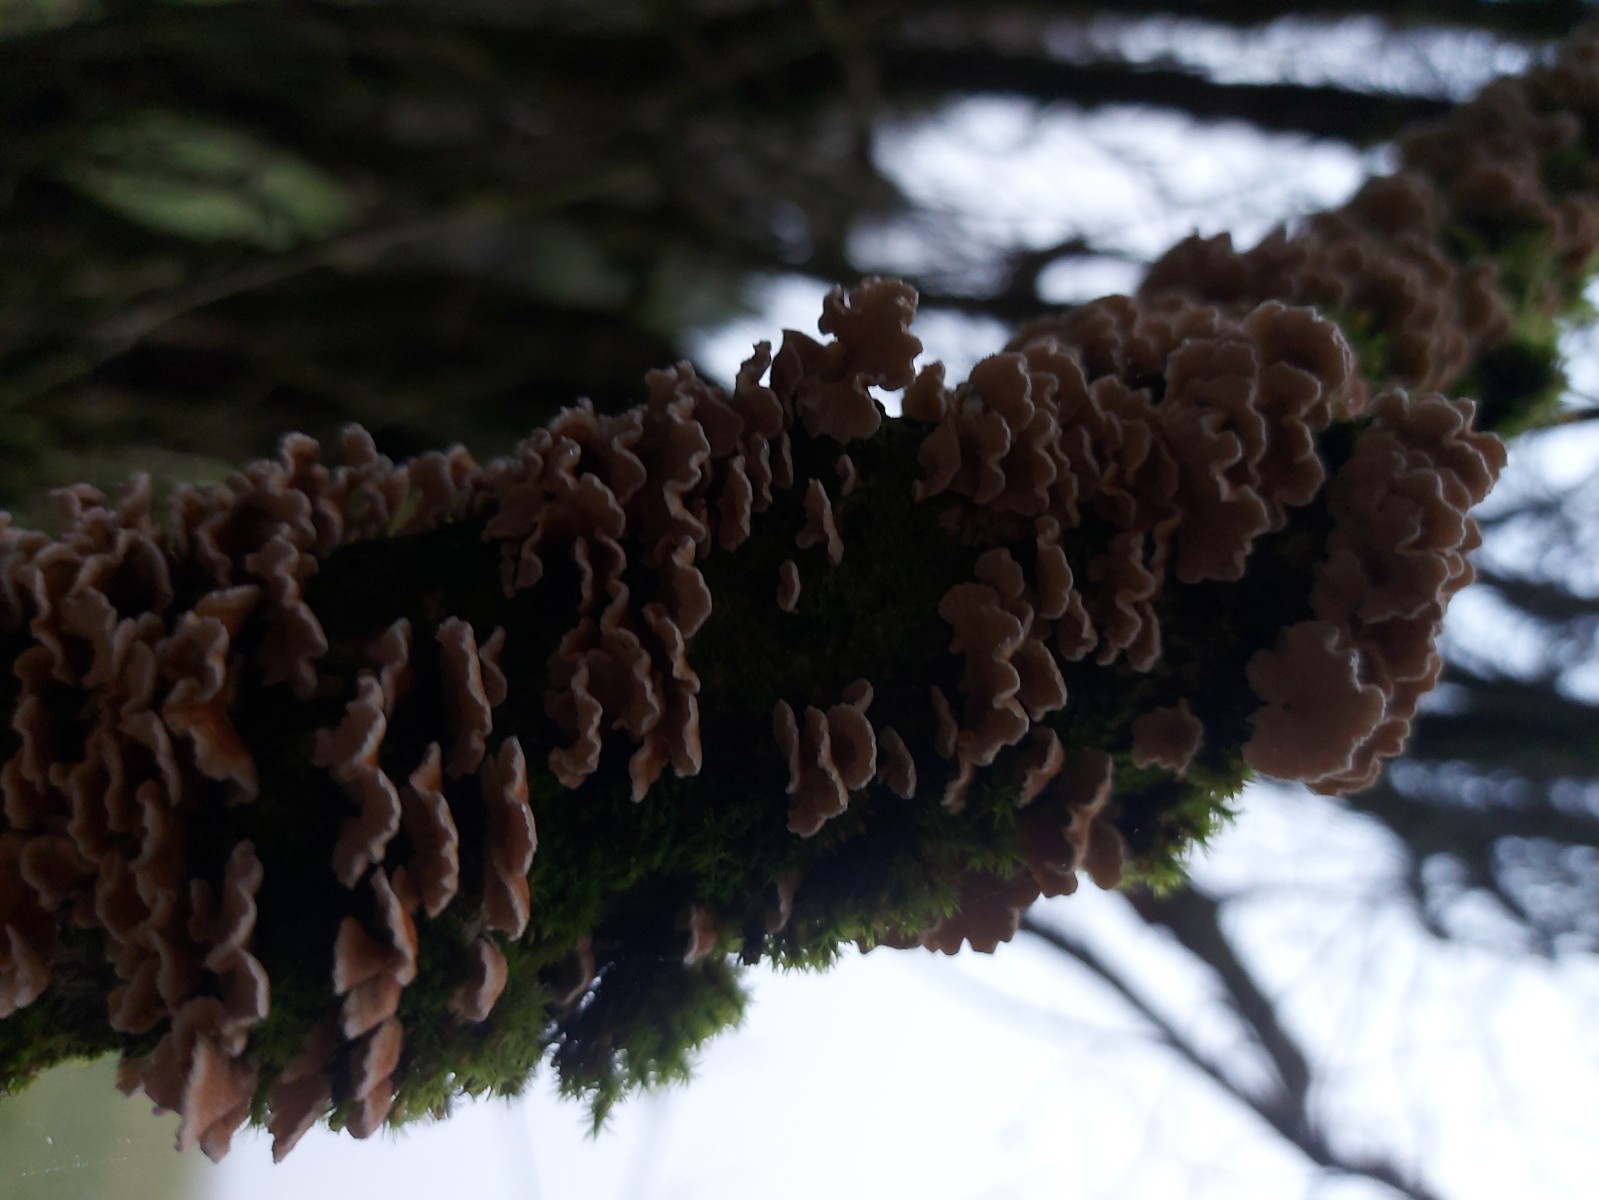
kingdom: Fungi
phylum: Basidiomycota
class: Agaricomycetes
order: Amylocorticiales
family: Amylocorticiaceae
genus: Plicaturopsis
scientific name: Plicaturopsis crispa
